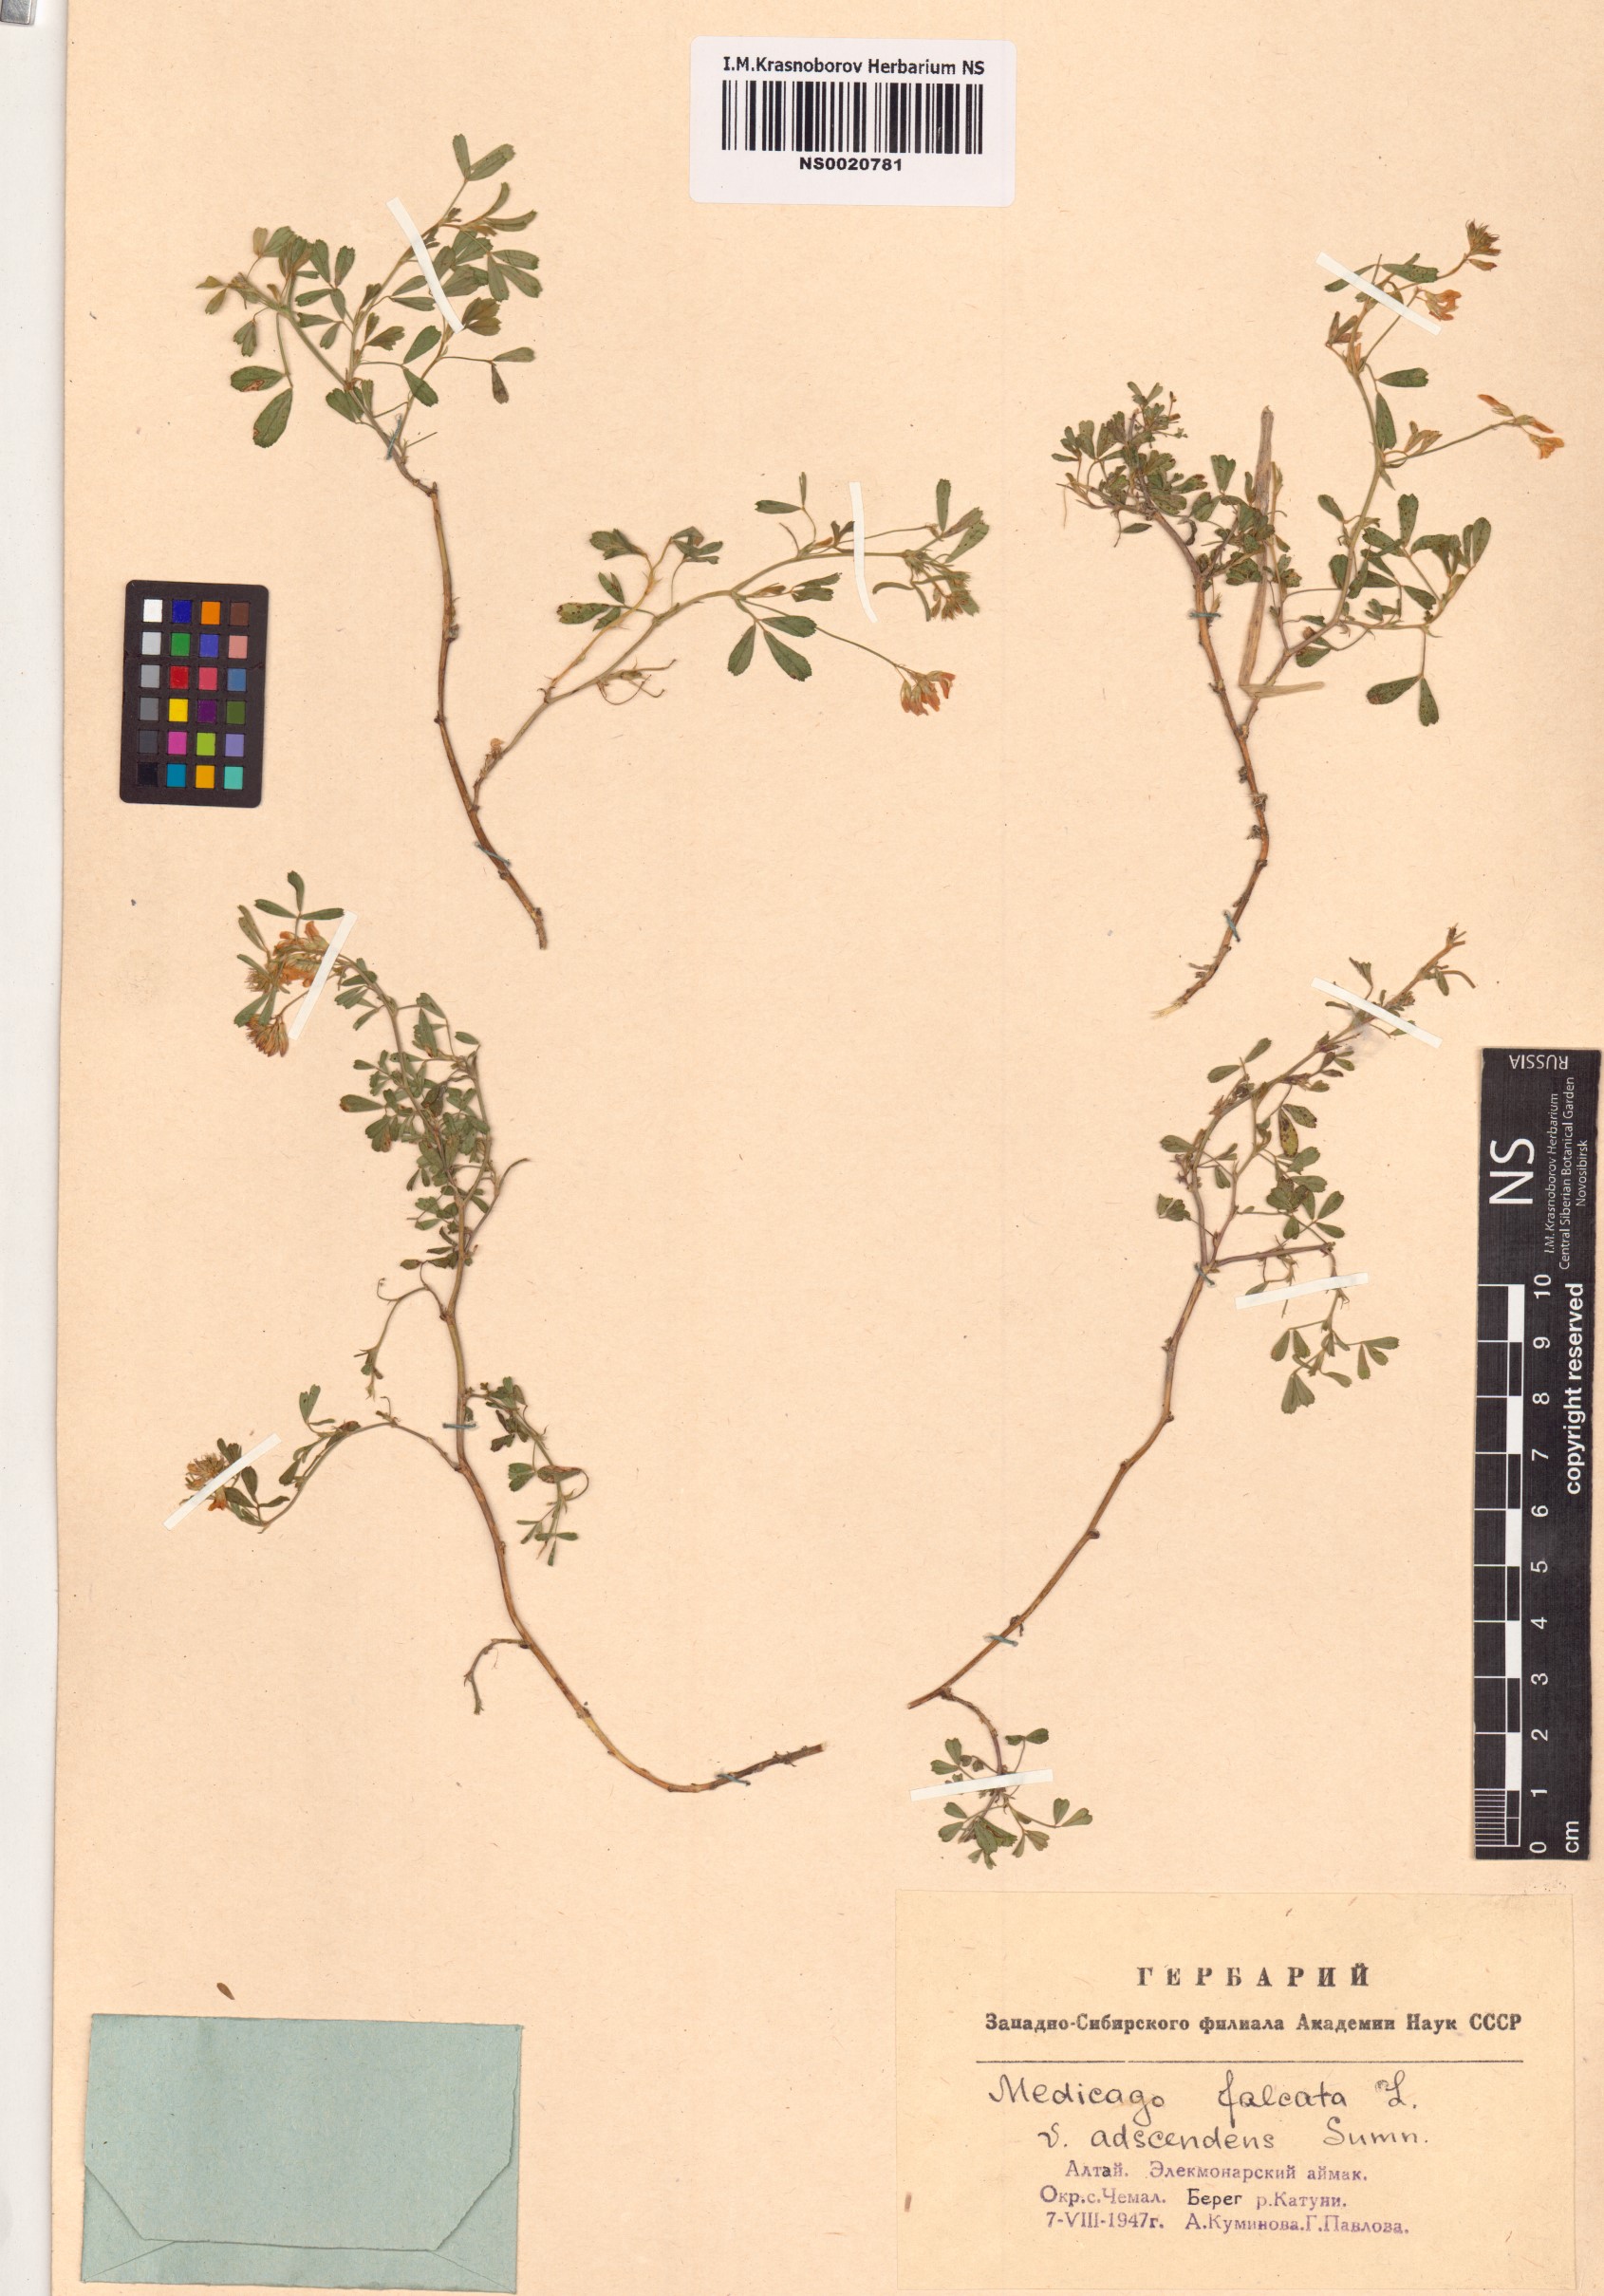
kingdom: Plantae
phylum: Tracheophyta
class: Magnoliopsida
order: Fabales
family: Fabaceae
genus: Medicago
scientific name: Medicago falcata
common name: Sickle medick
